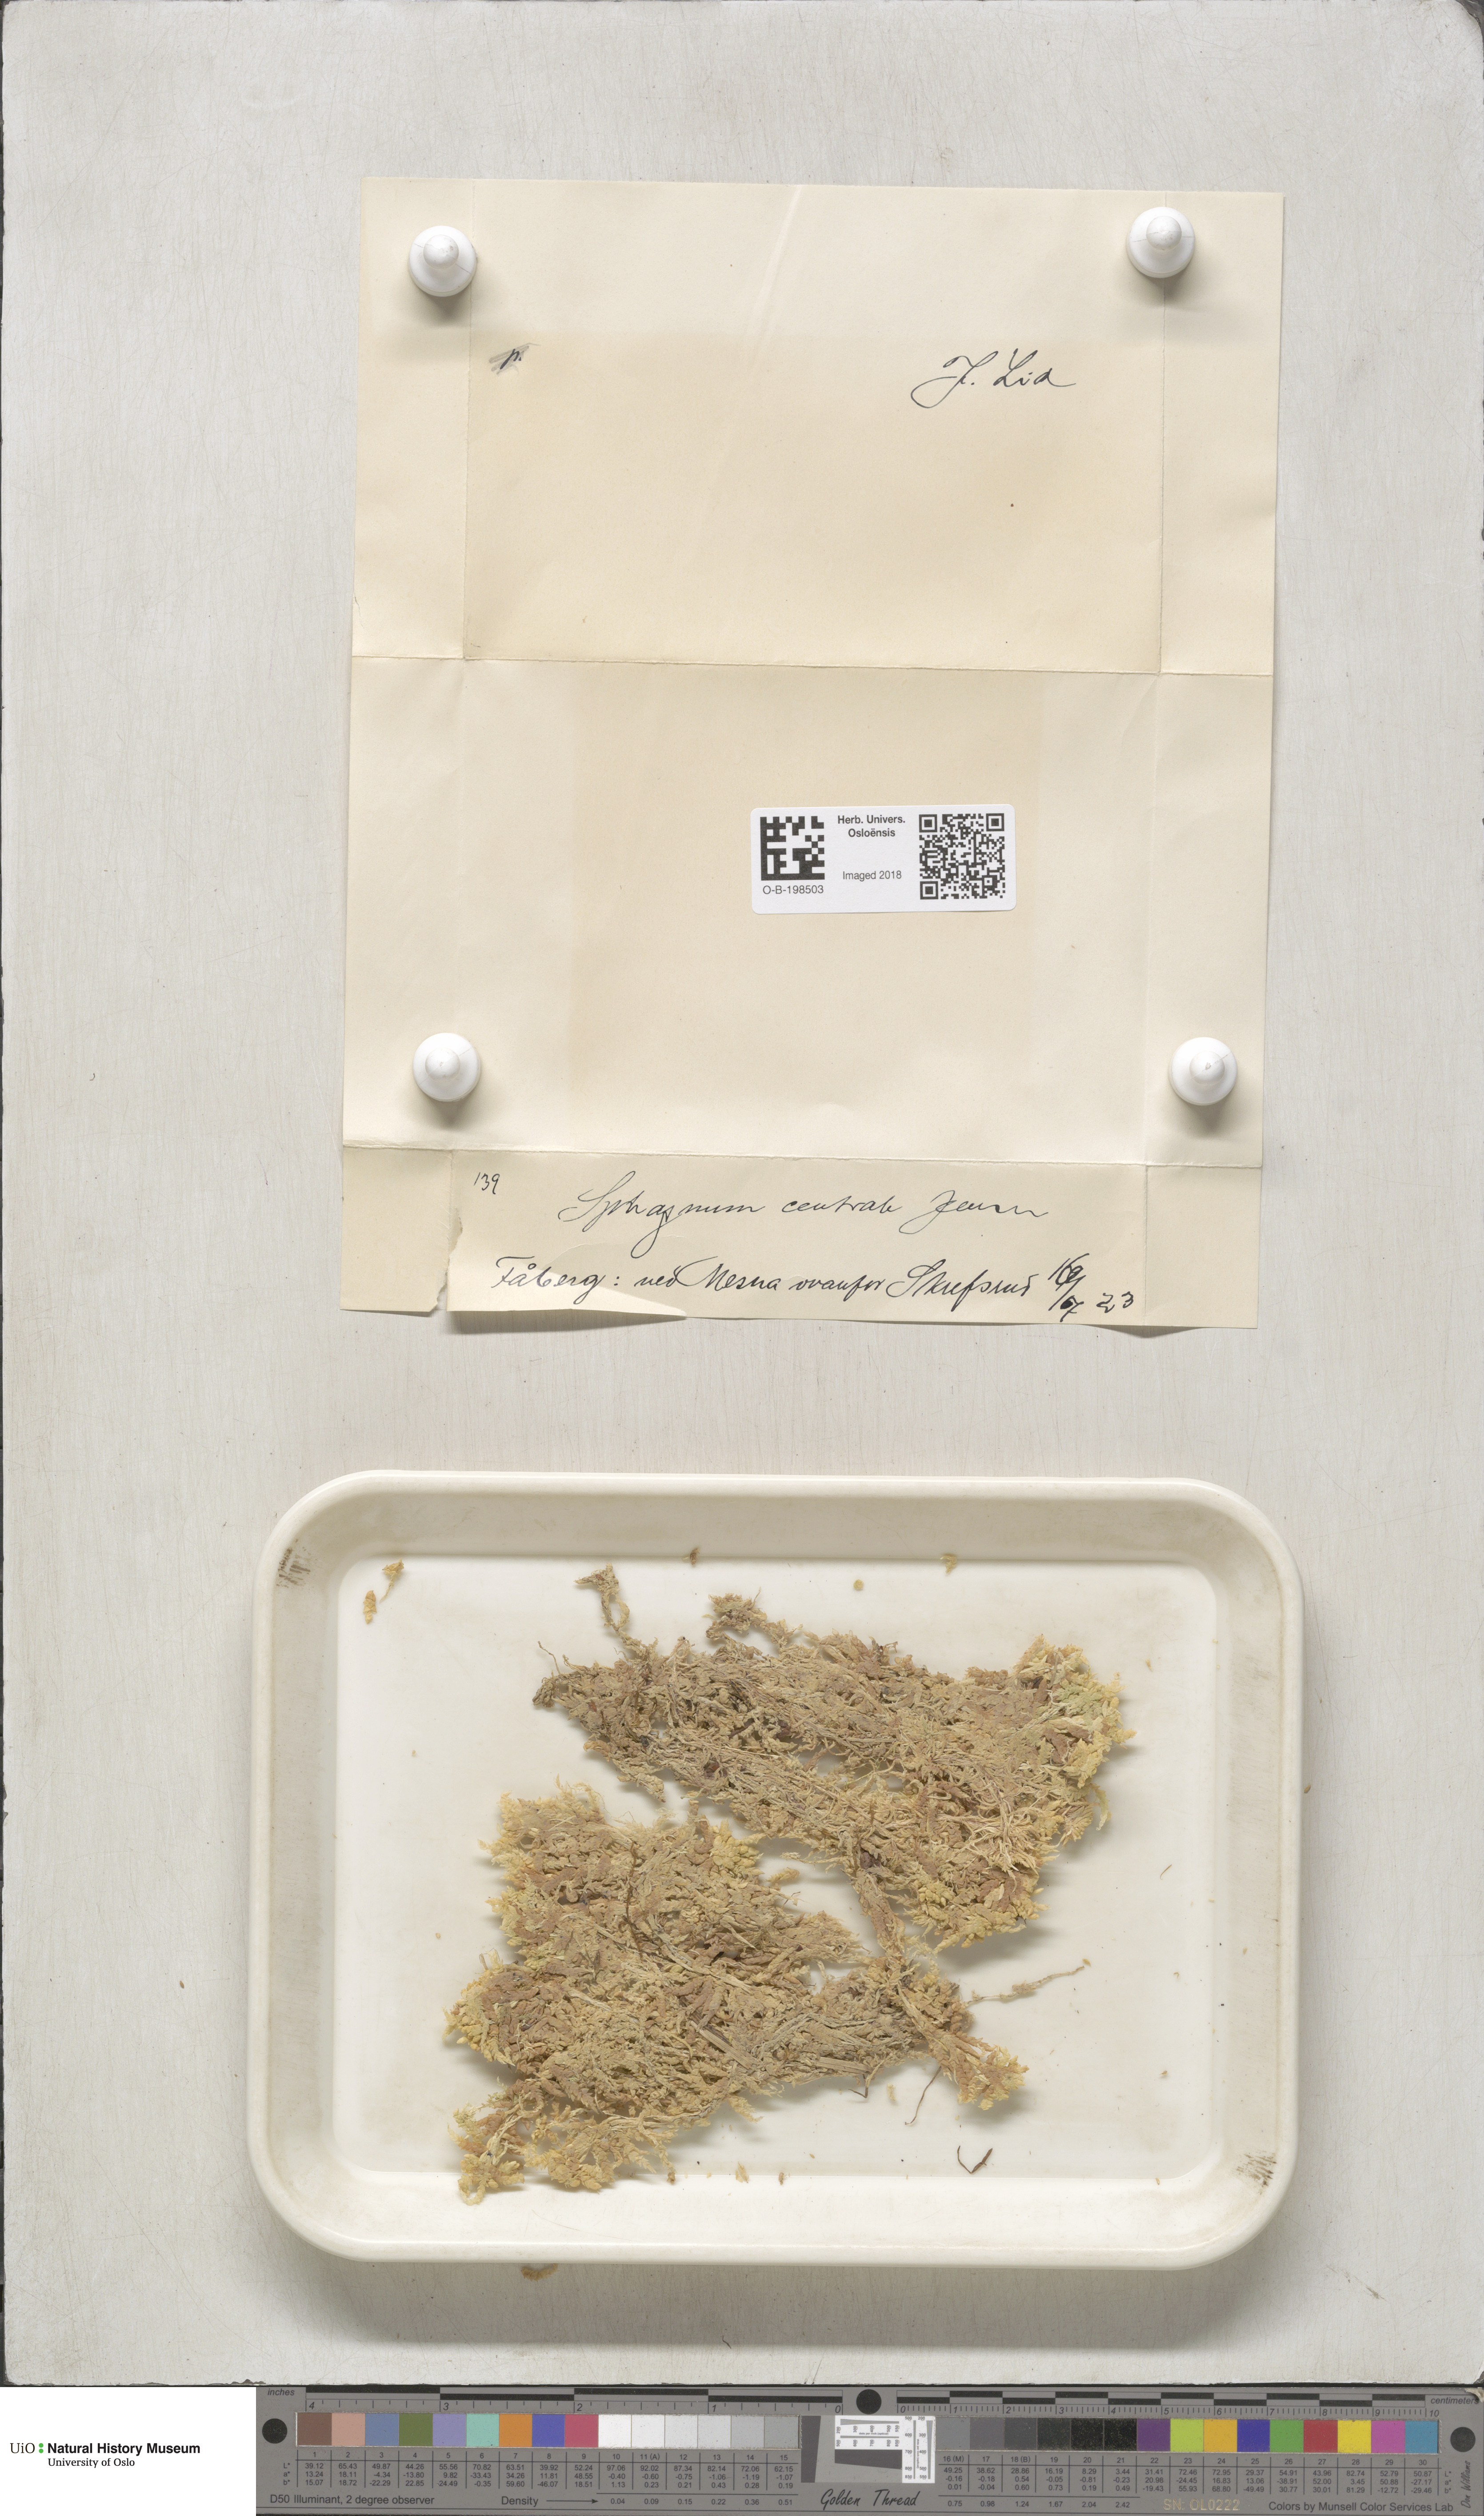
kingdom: Plantae
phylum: Bryophyta
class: Sphagnopsida
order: Sphagnales
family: Sphagnaceae
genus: Sphagnum
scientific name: Sphagnum centrale
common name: Central peat moss
